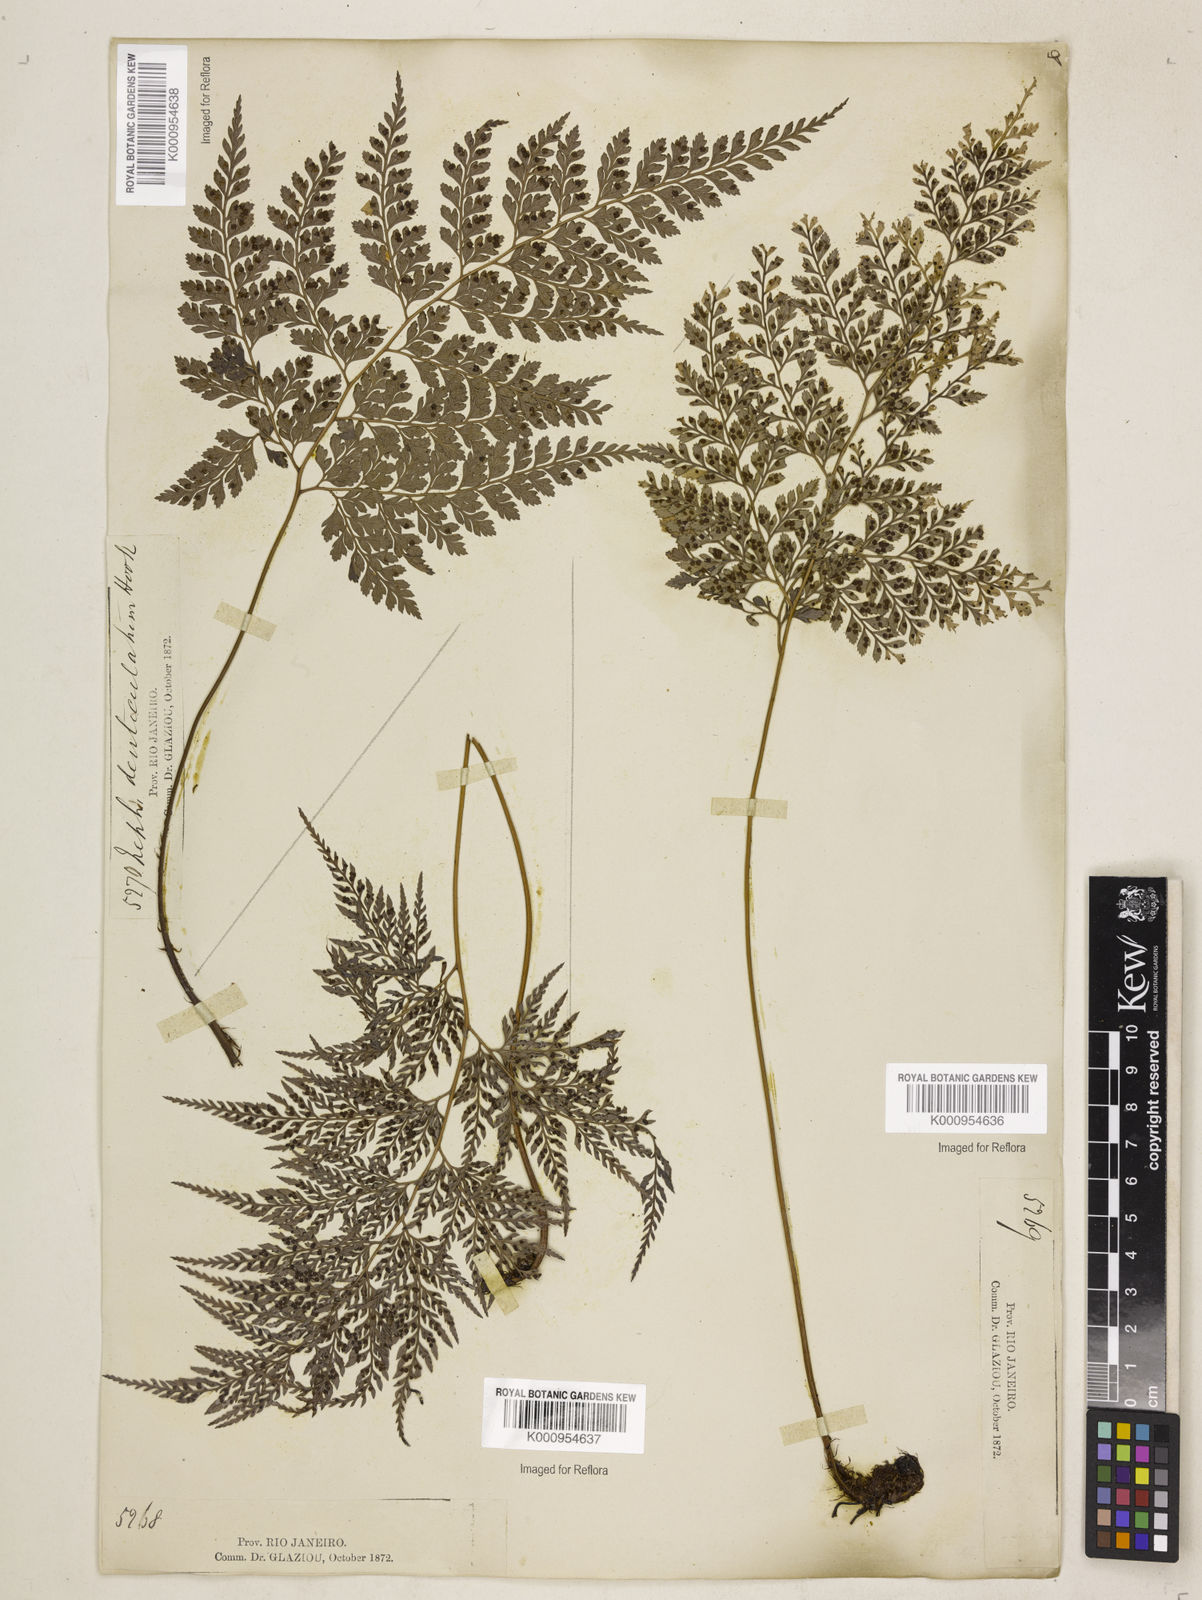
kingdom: Plantae
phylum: Tracheophyta
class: Polypodiopsida
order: Polypodiales
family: Dryopteridaceae
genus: Arachniodes
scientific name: Arachniodes denticulata
